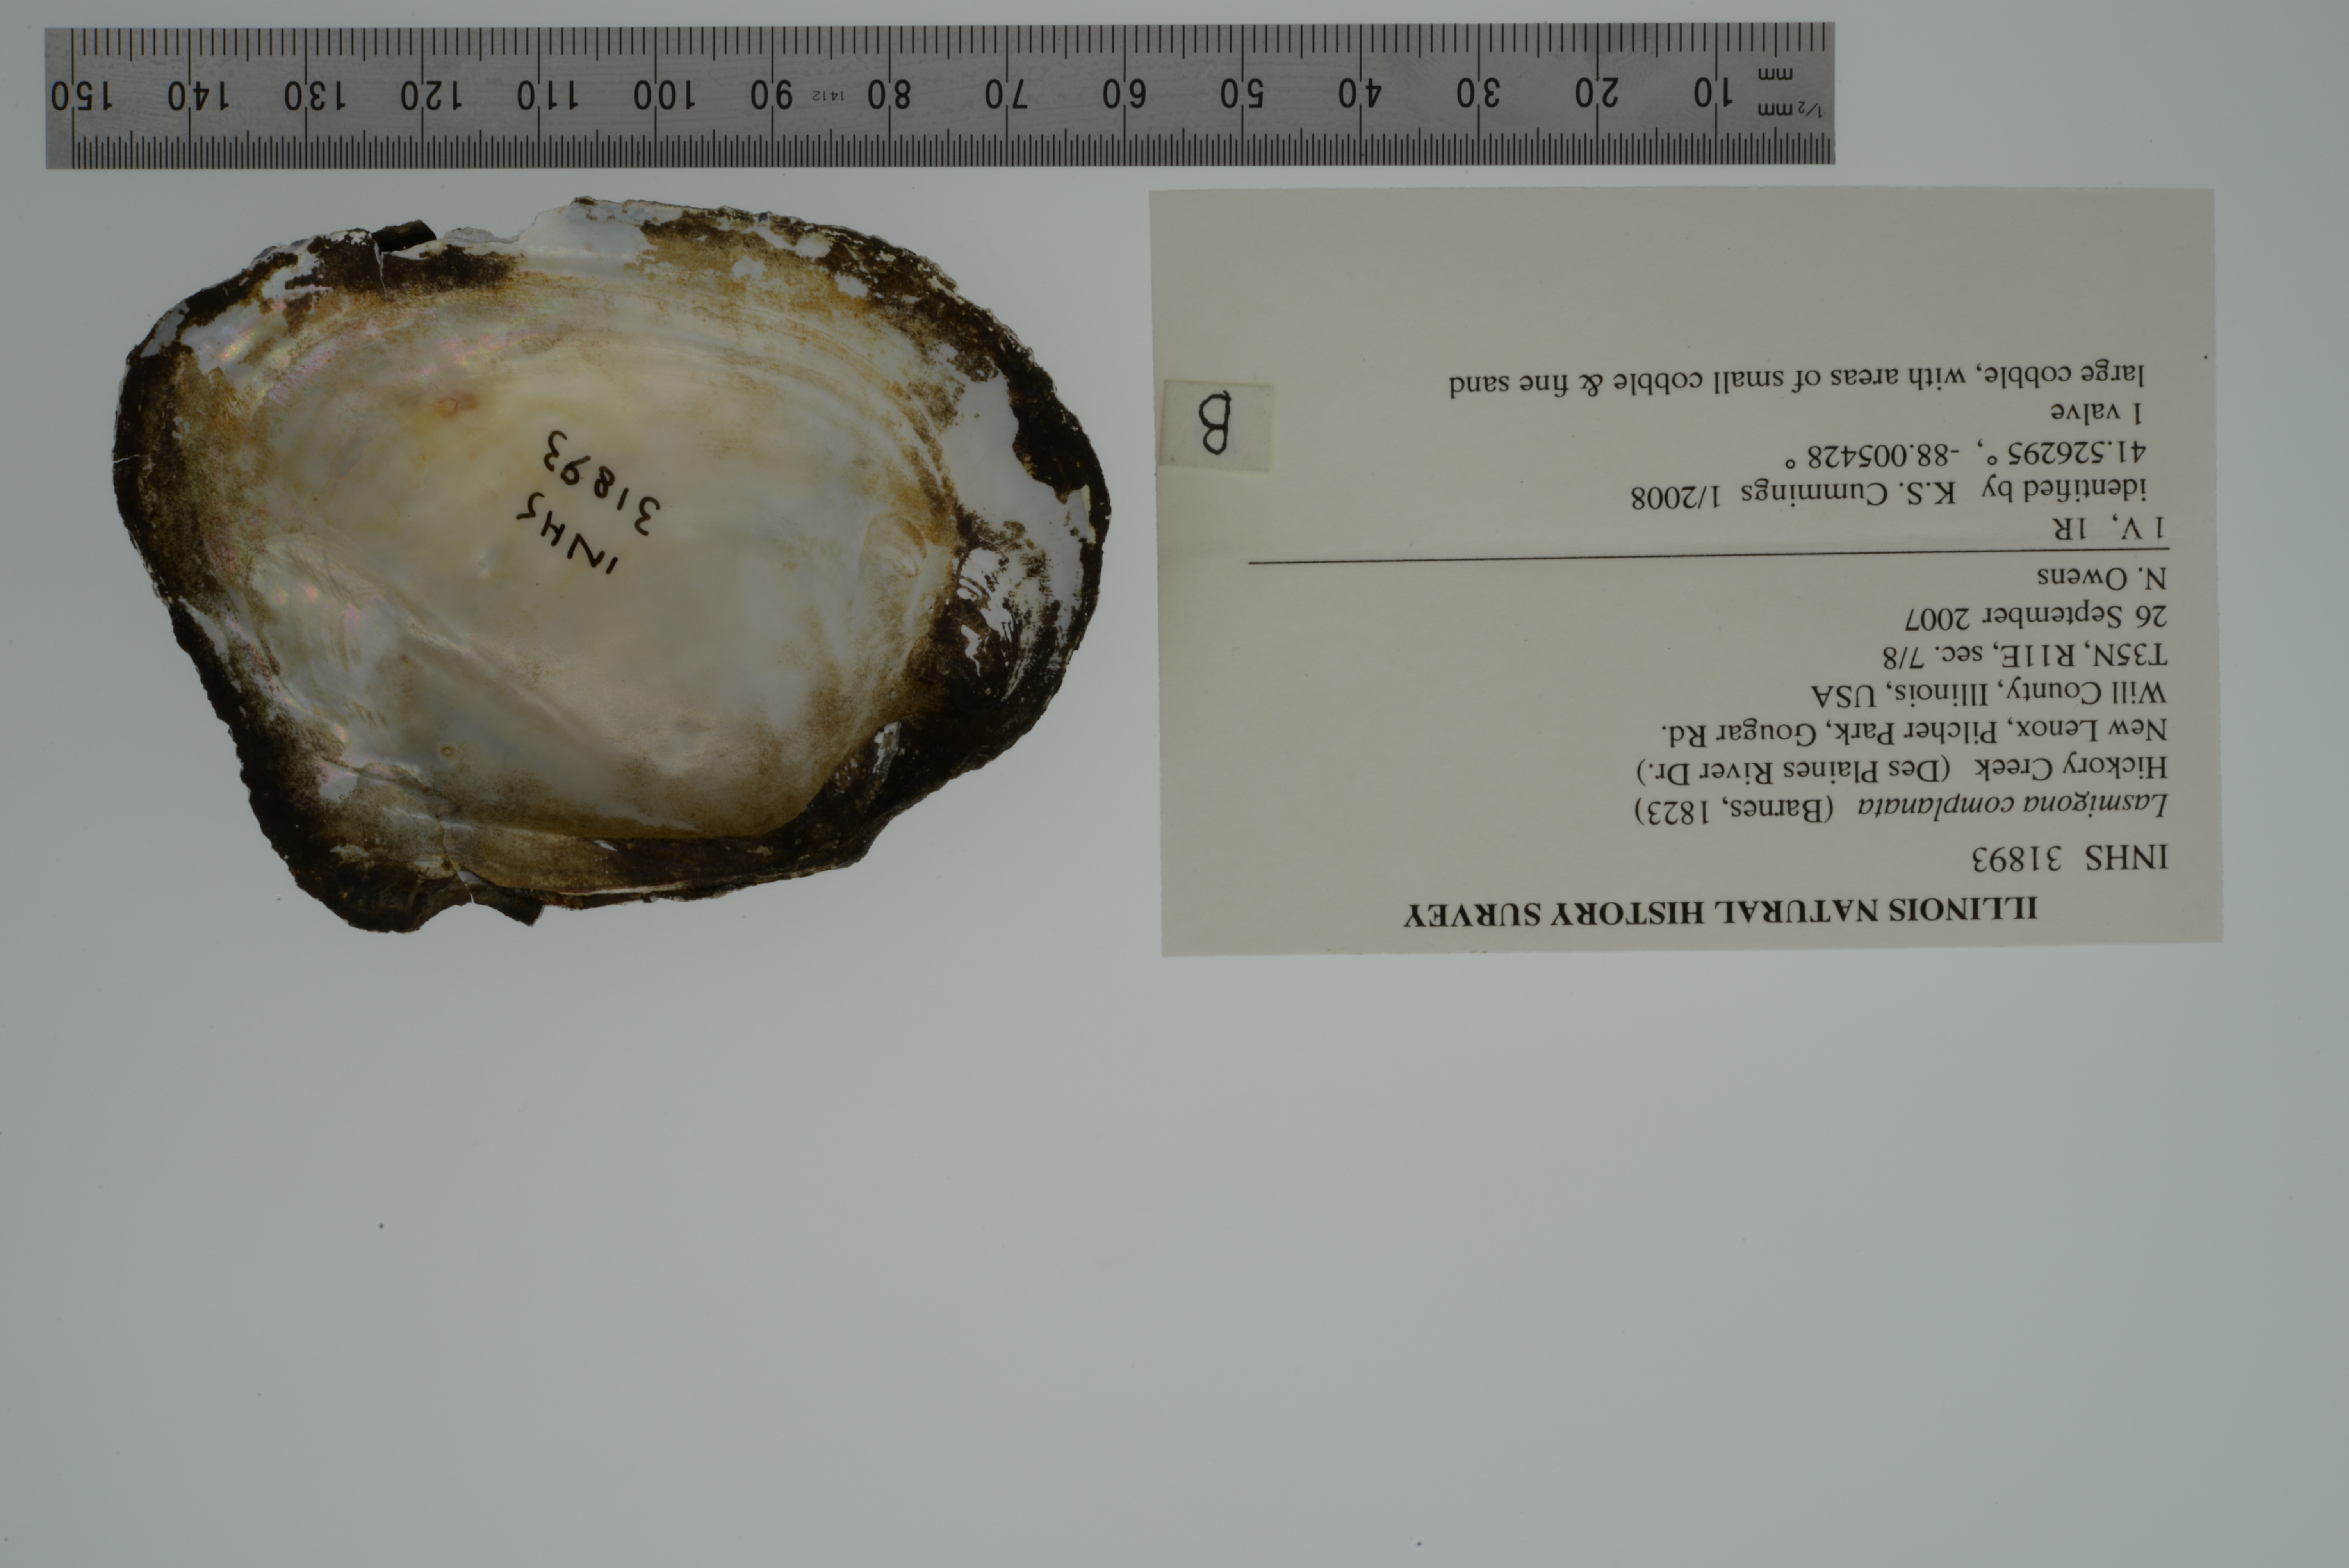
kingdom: Animalia
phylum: Mollusca
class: Bivalvia
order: Unionida
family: Unionidae
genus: Lasmigona
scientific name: Lasmigona complanata
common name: White heelsplitter
